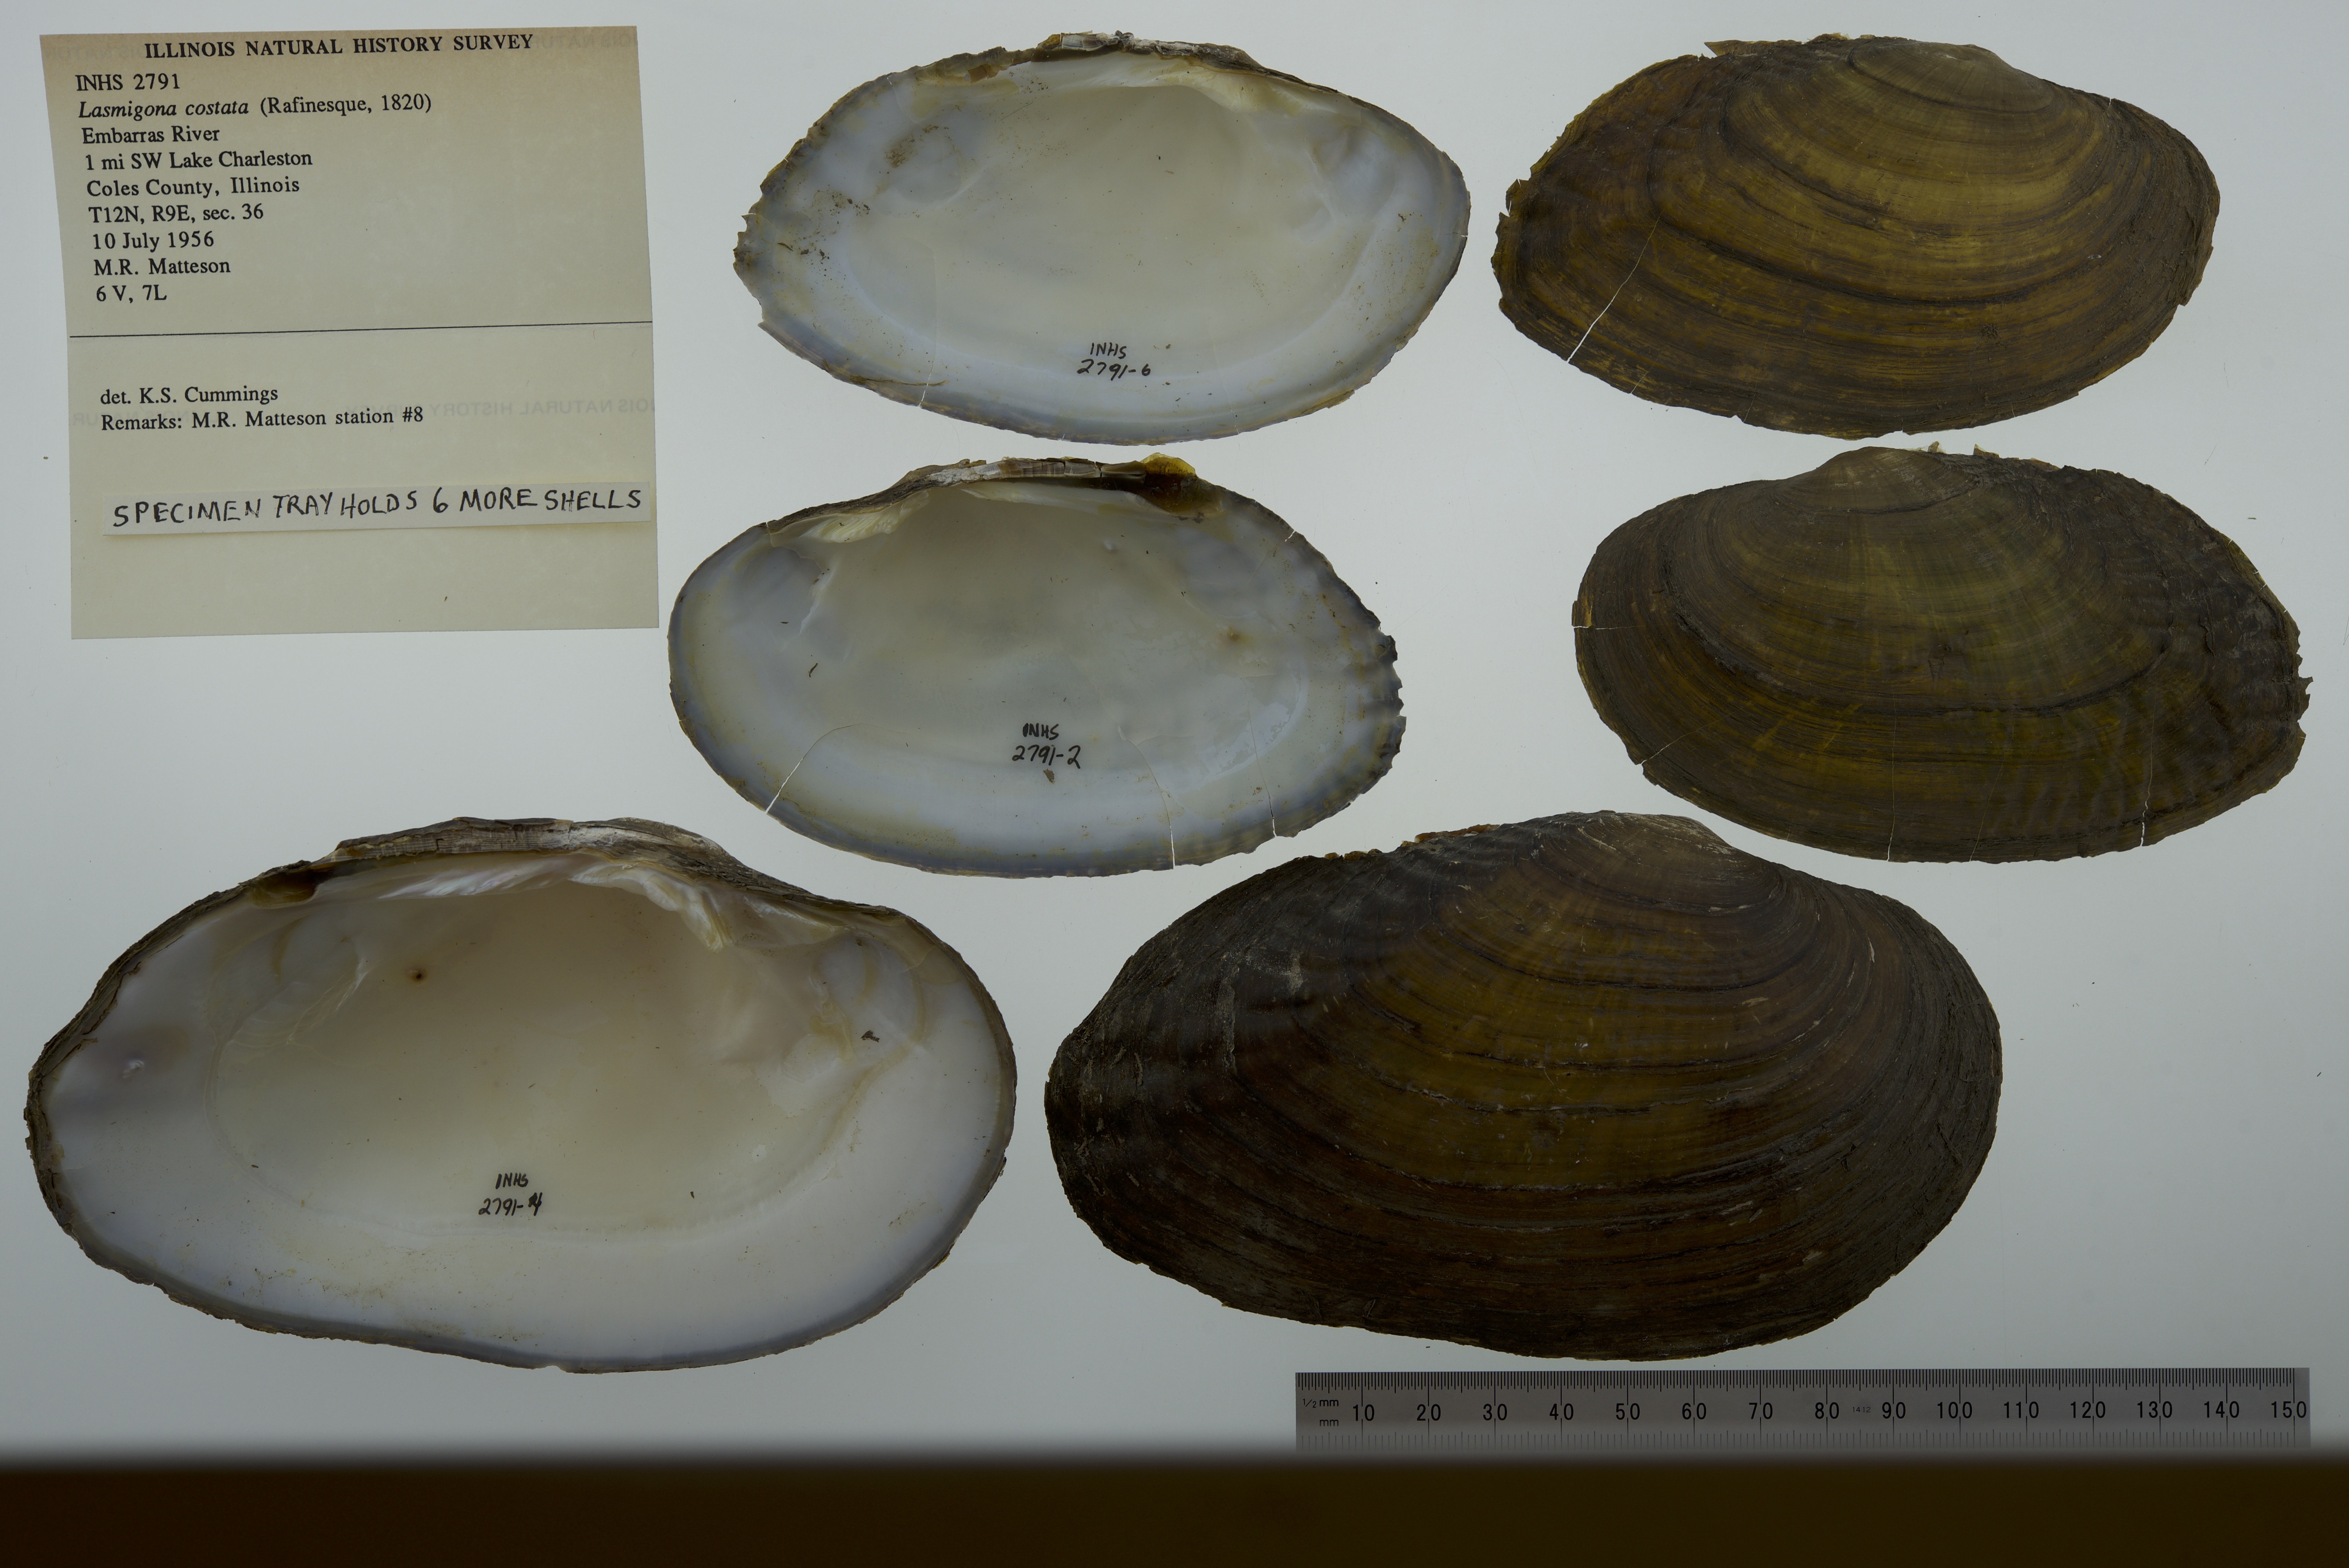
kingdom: Animalia
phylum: Mollusca
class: Bivalvia
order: Unionida
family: Unionidae
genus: Lasmigona
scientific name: Lasmigona costata
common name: Flutedshell
